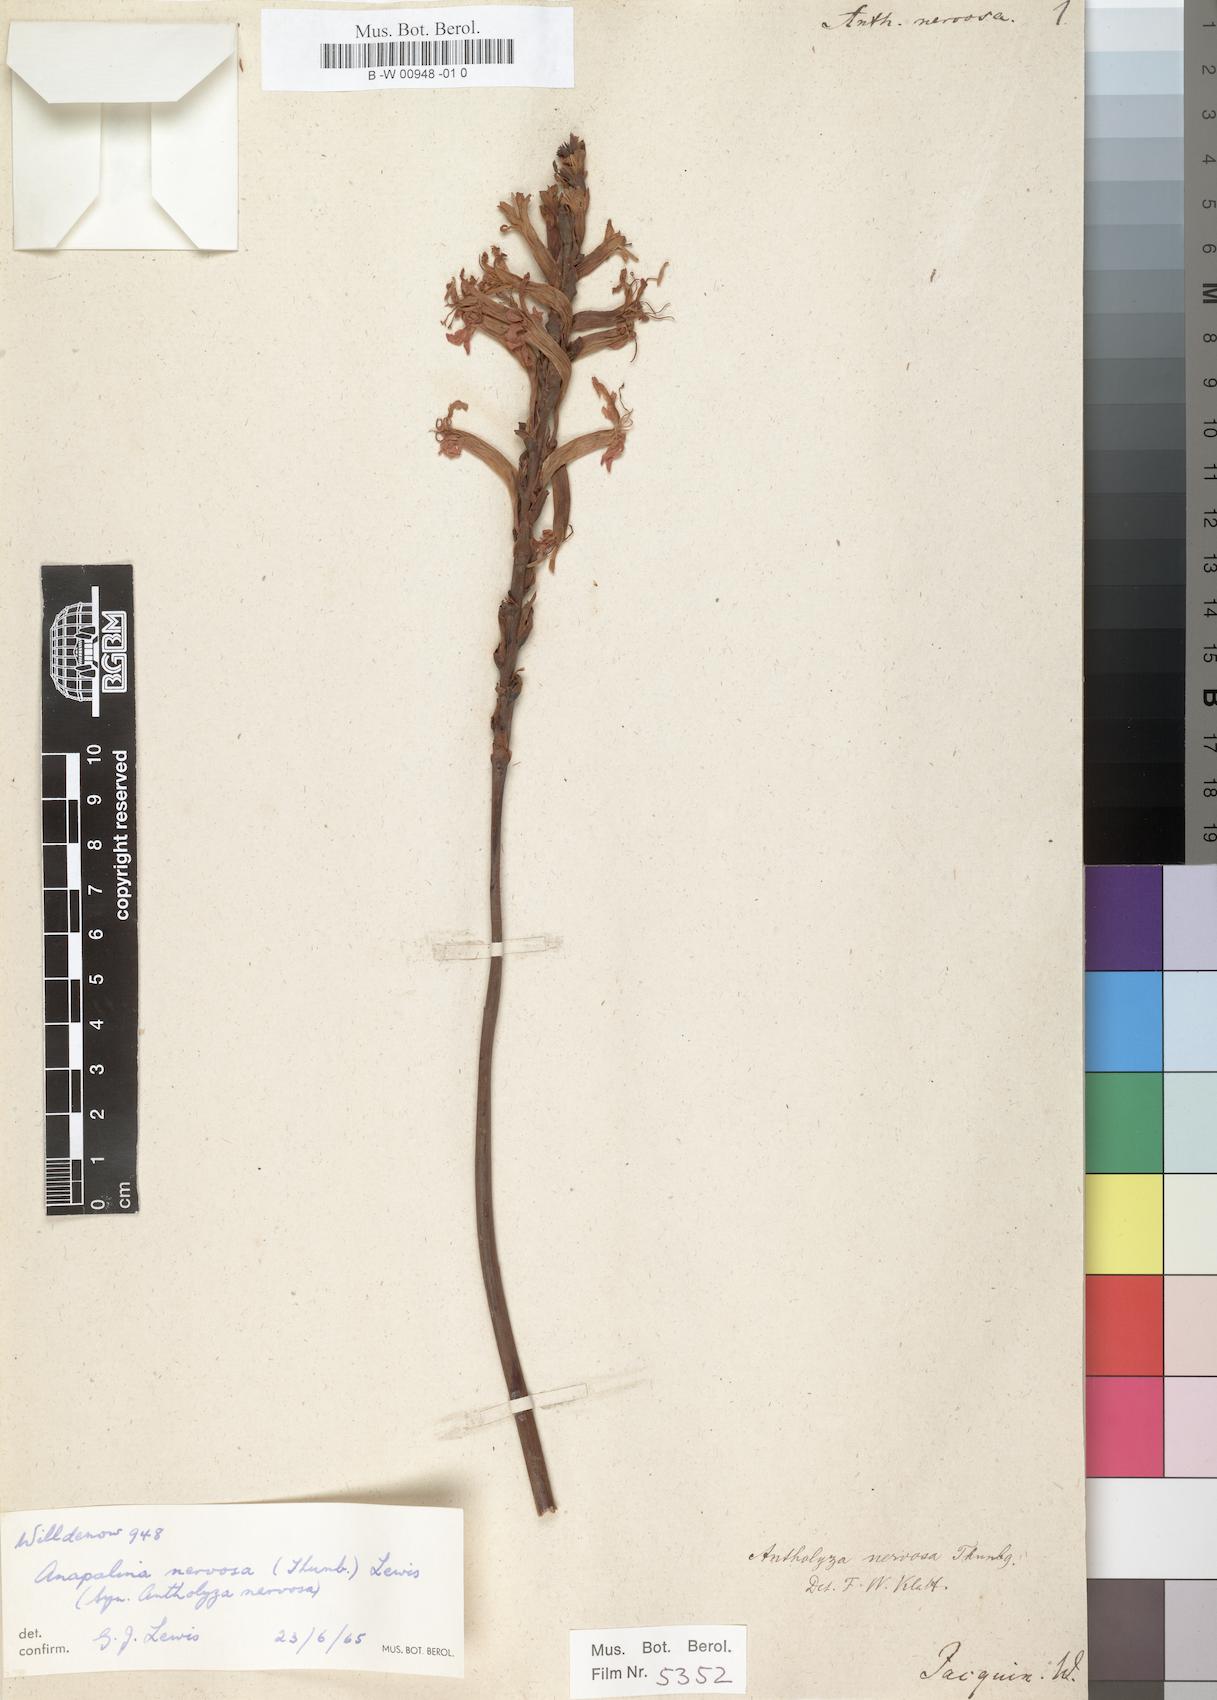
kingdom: Plantae
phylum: Tracheophyta
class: Liliopsida
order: Asparagales
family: Iridaceae
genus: Tritoniopsis
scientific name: Tritoniopsis antholyza
